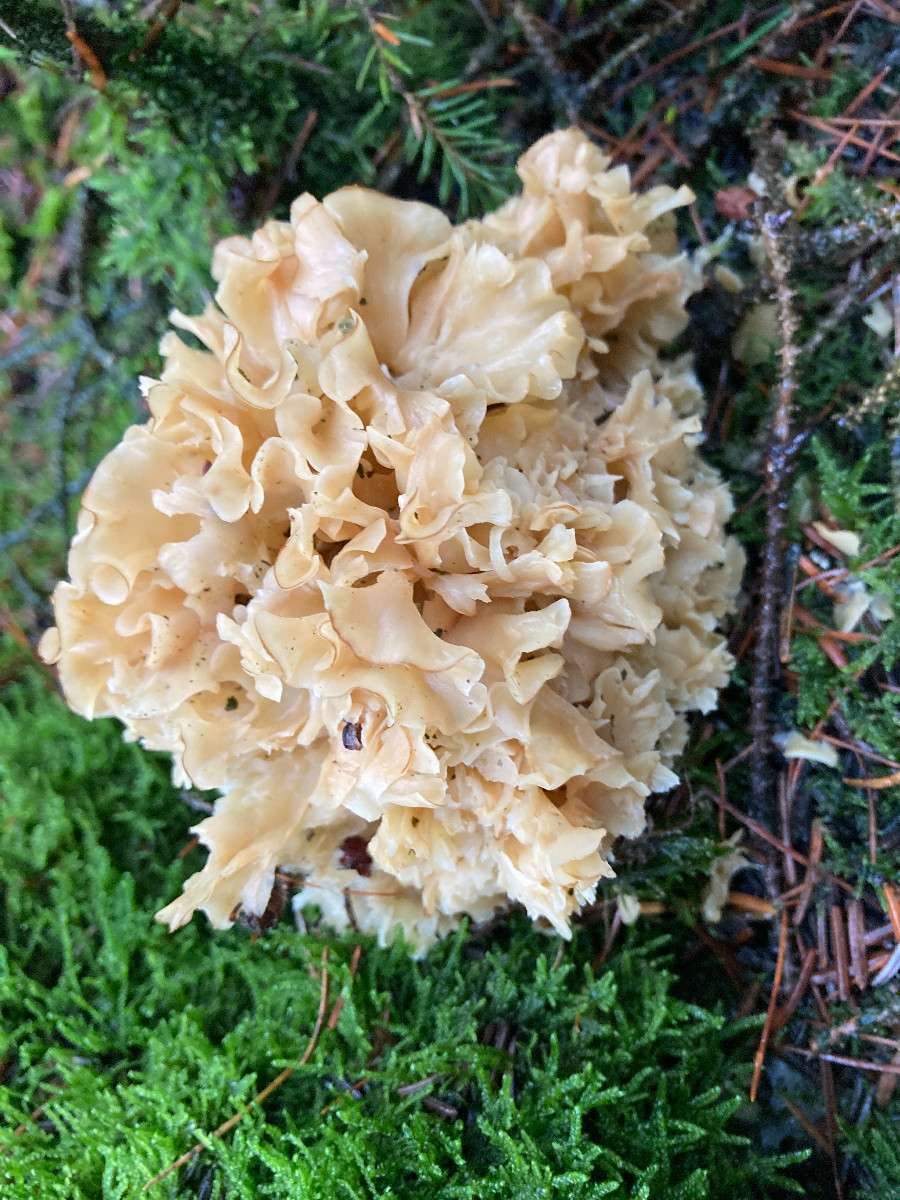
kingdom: Fungi
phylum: Basidiomycota
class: Agaricomycetes
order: Polyporales
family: Sparassidaceae
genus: Sparassis
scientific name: Sparassis crispa
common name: kruset blomkålssvamp
